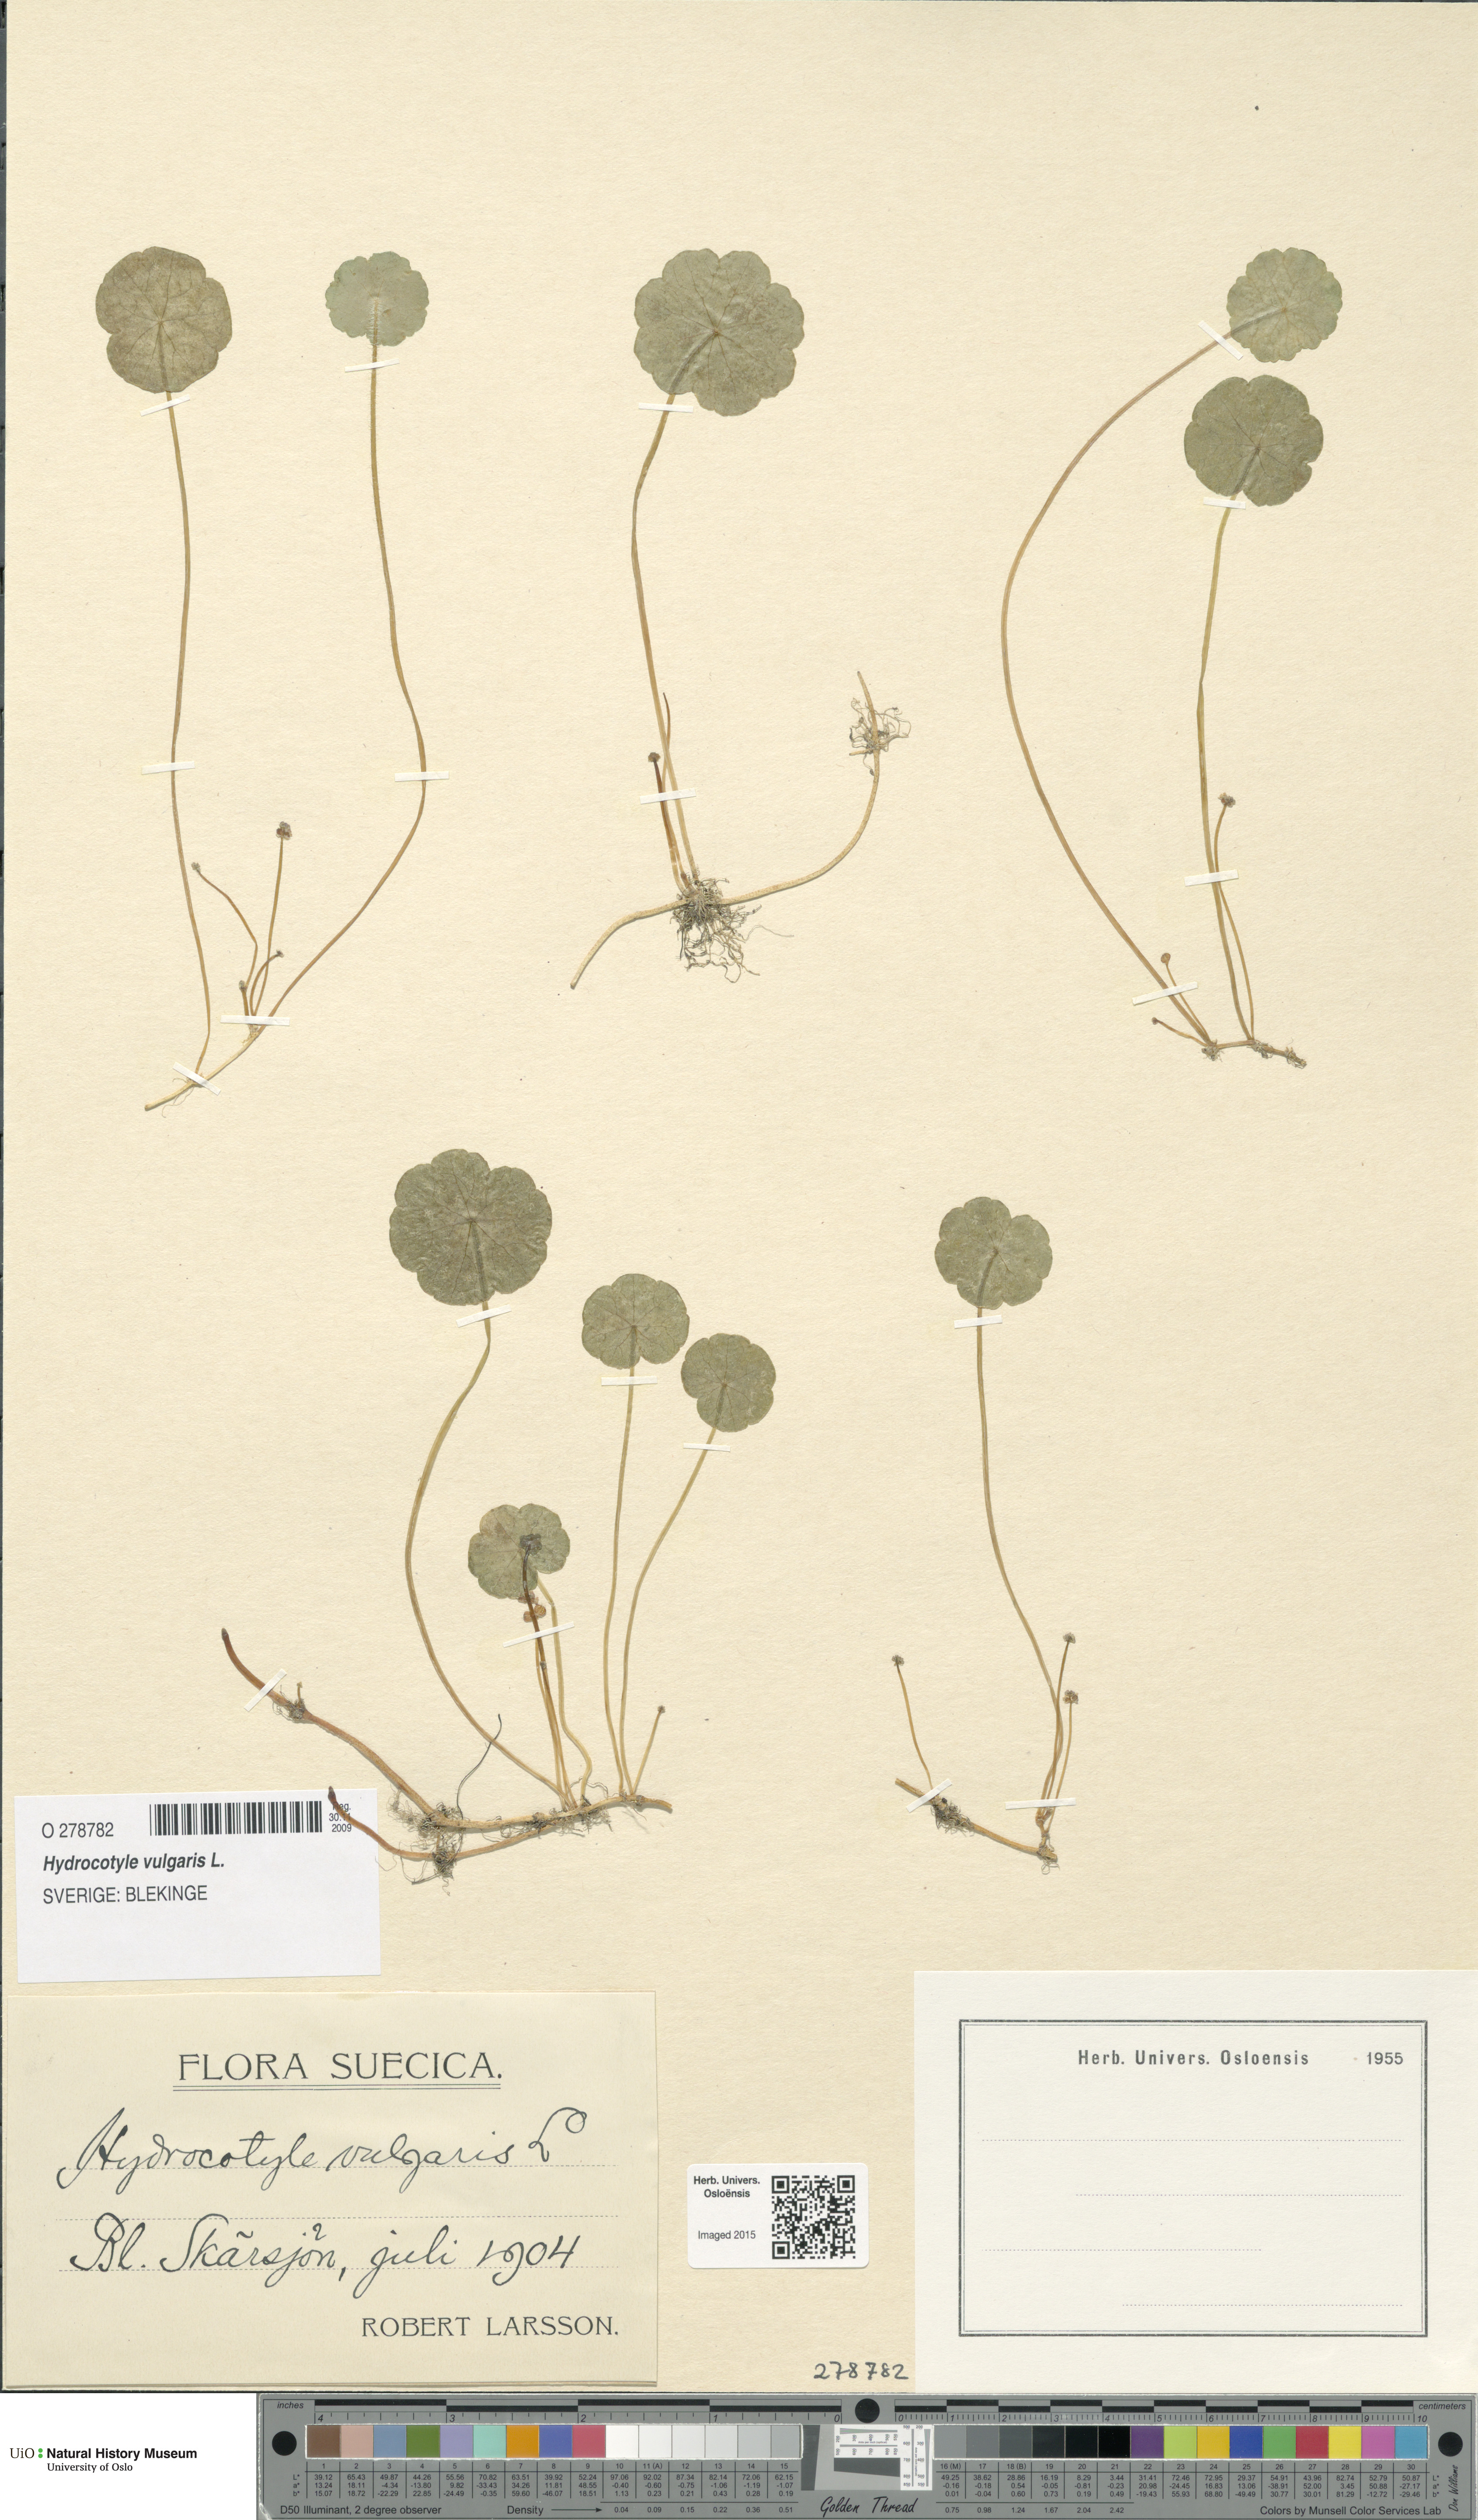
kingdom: Plantae
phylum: Tracheophyta
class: Magnoliopsida
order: Apiales
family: Araliaceae
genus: Hydrocotyle
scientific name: Hydrocotyle vulgaris
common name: Marsh pennywort
